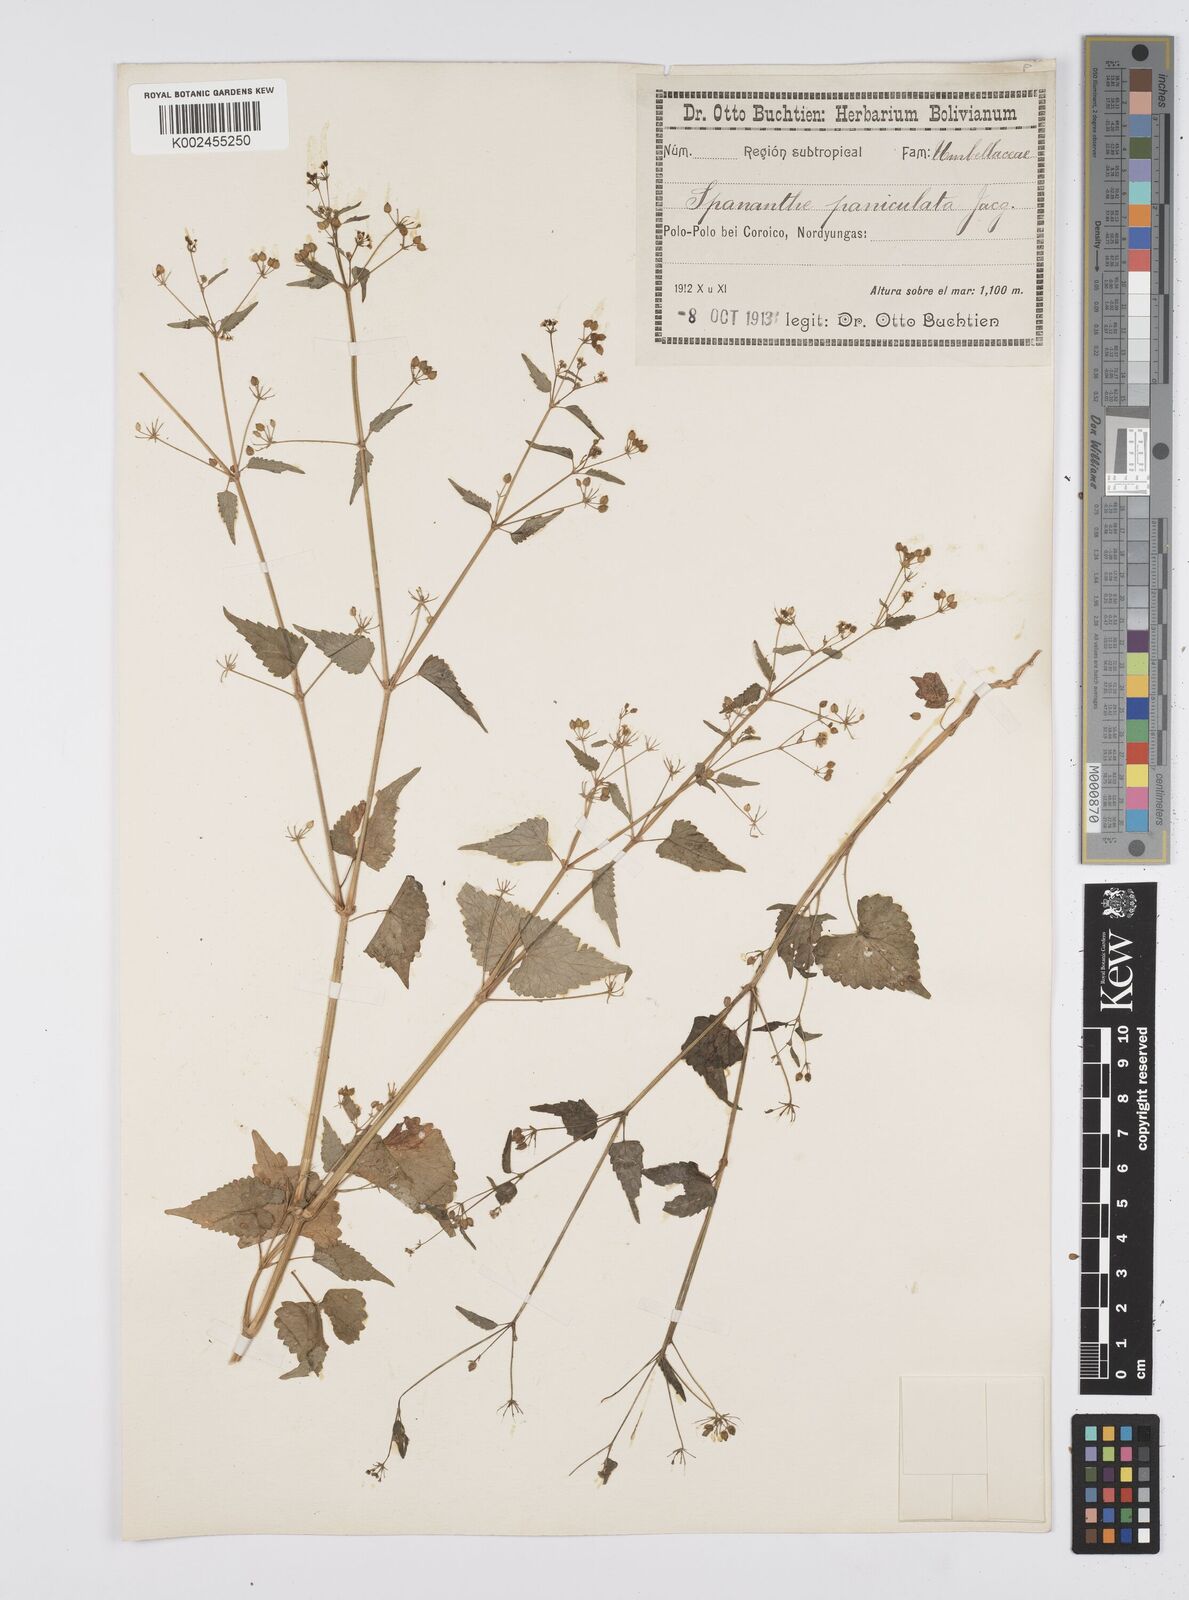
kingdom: Plantae
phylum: Tracheophyta
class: Magnoliopsida
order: Apiales
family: Apiaceae
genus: Azorella
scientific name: Azorella
